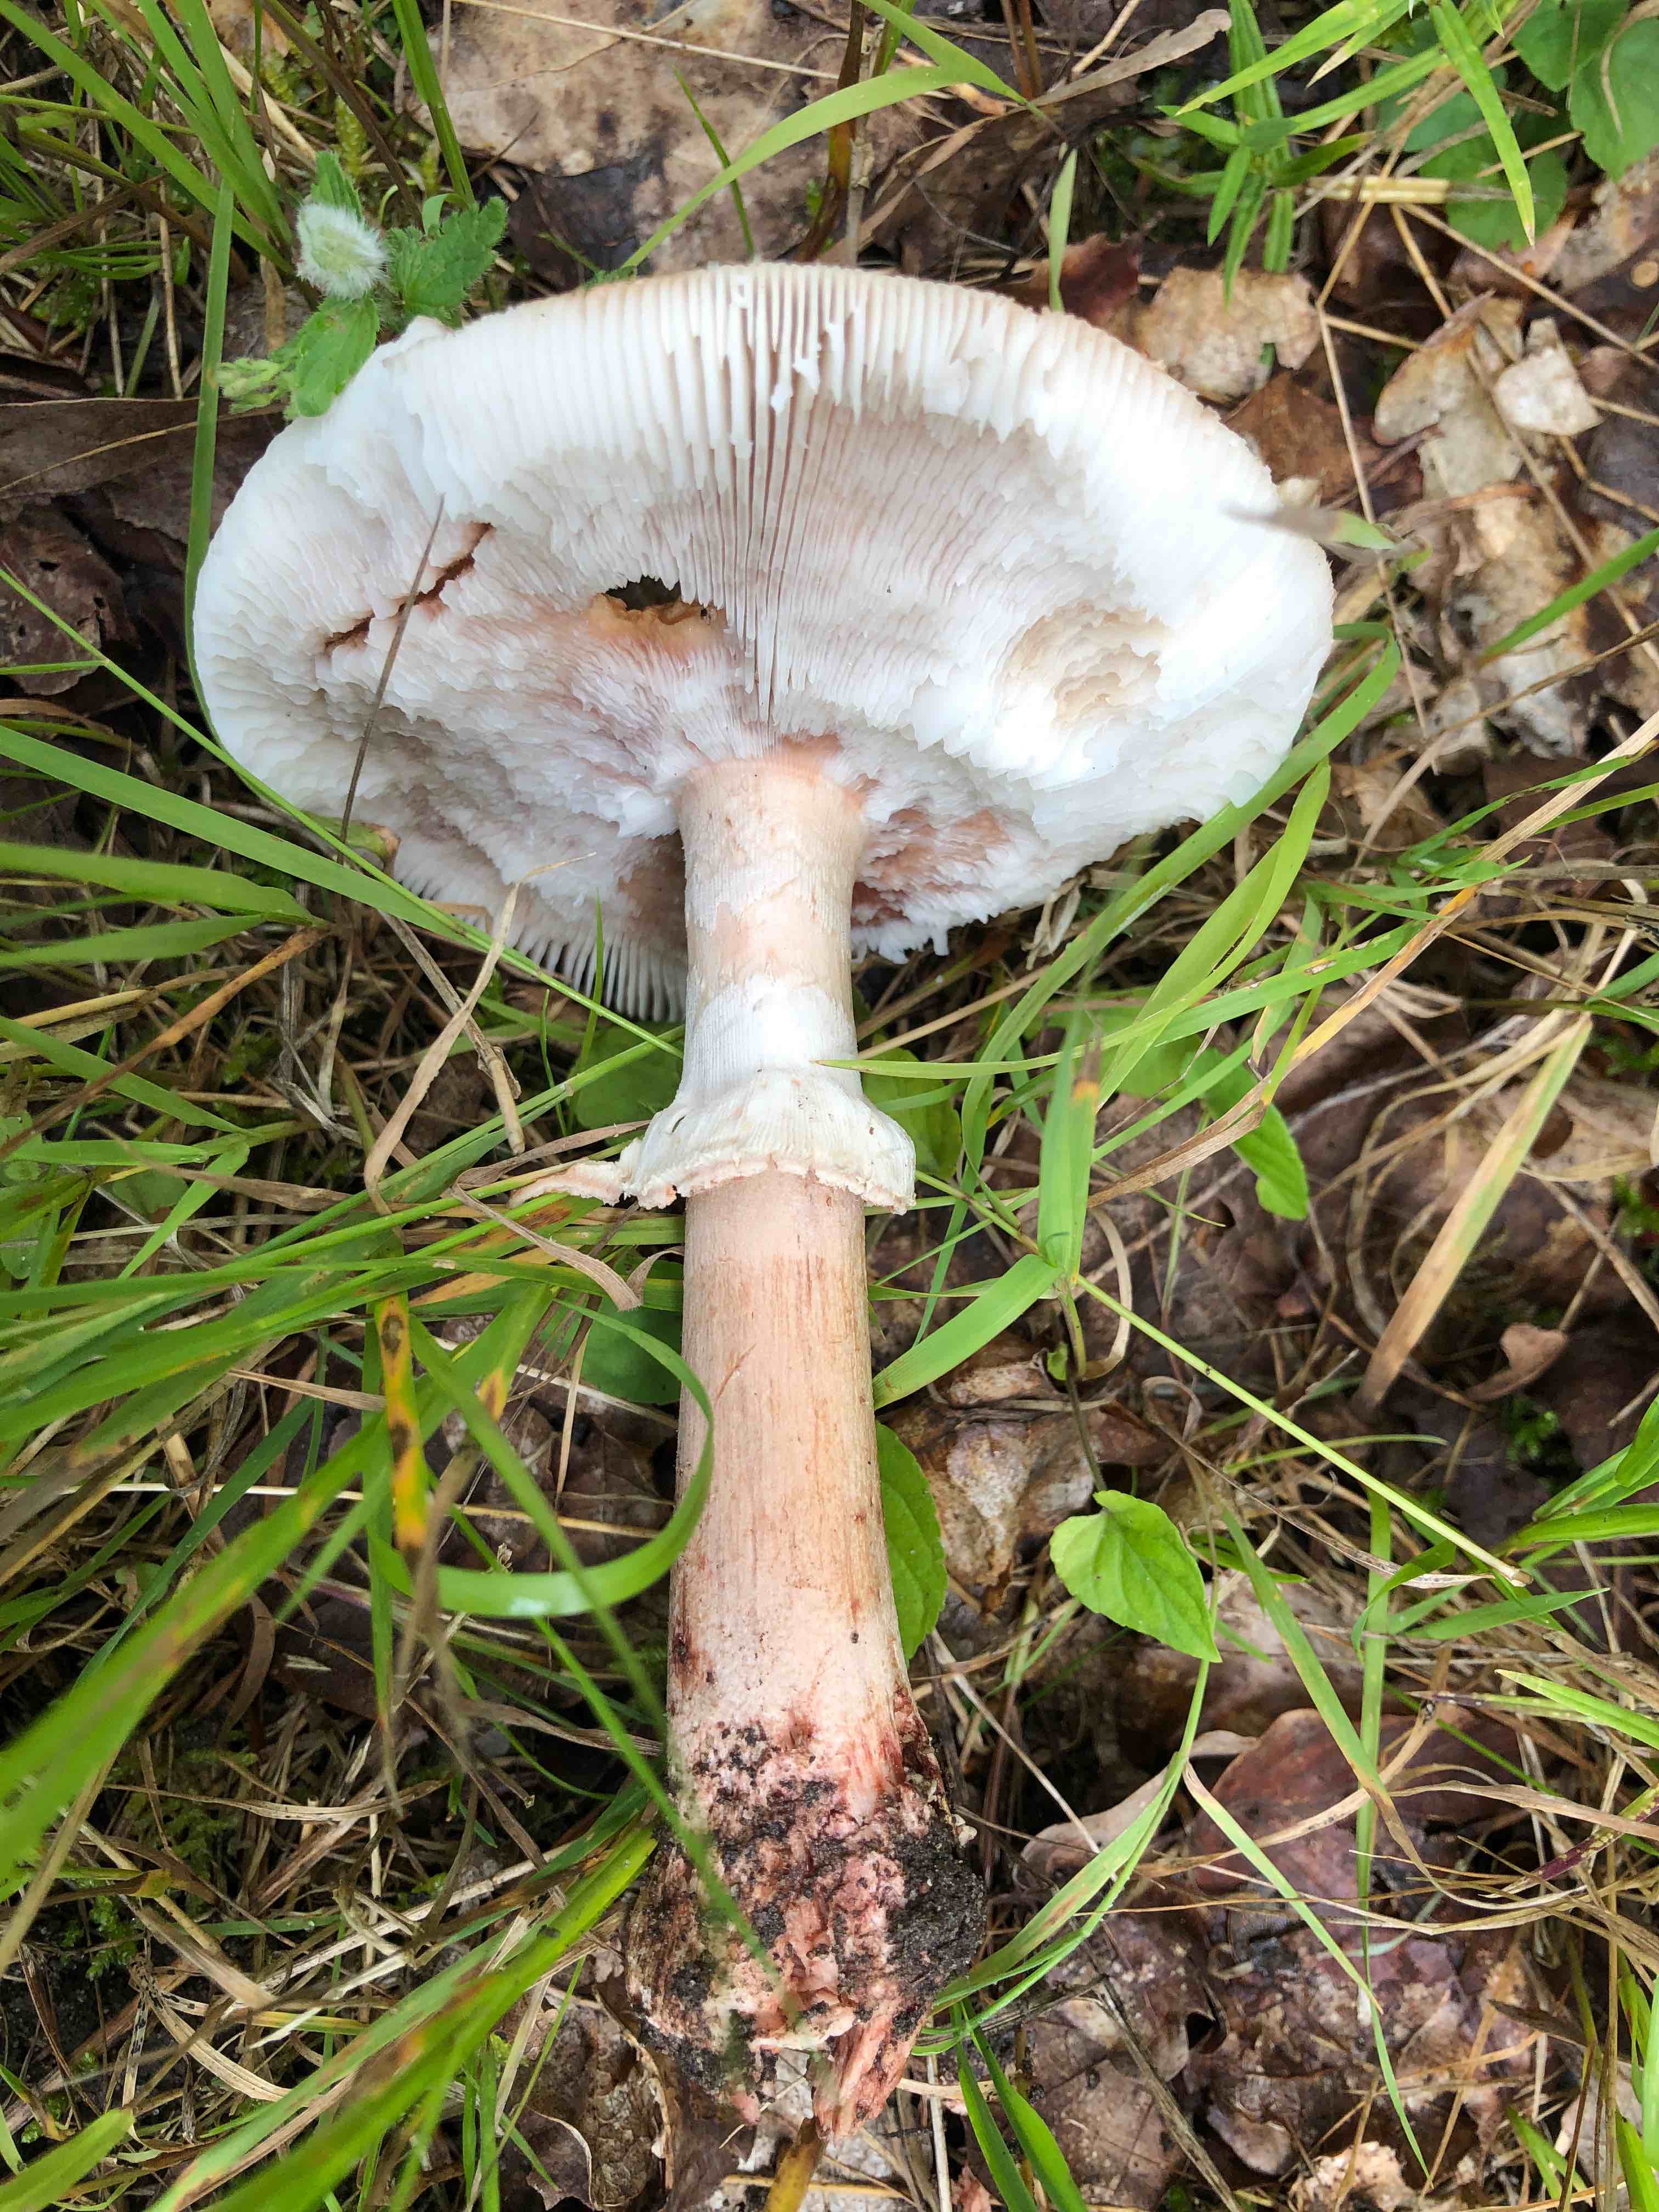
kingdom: Fungi
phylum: Basidiomycota
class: Agaricomycetes
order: Agaricales
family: Amanitaceae
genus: Amanita
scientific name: Amanita rubescens
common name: rødmende fluesvamp
